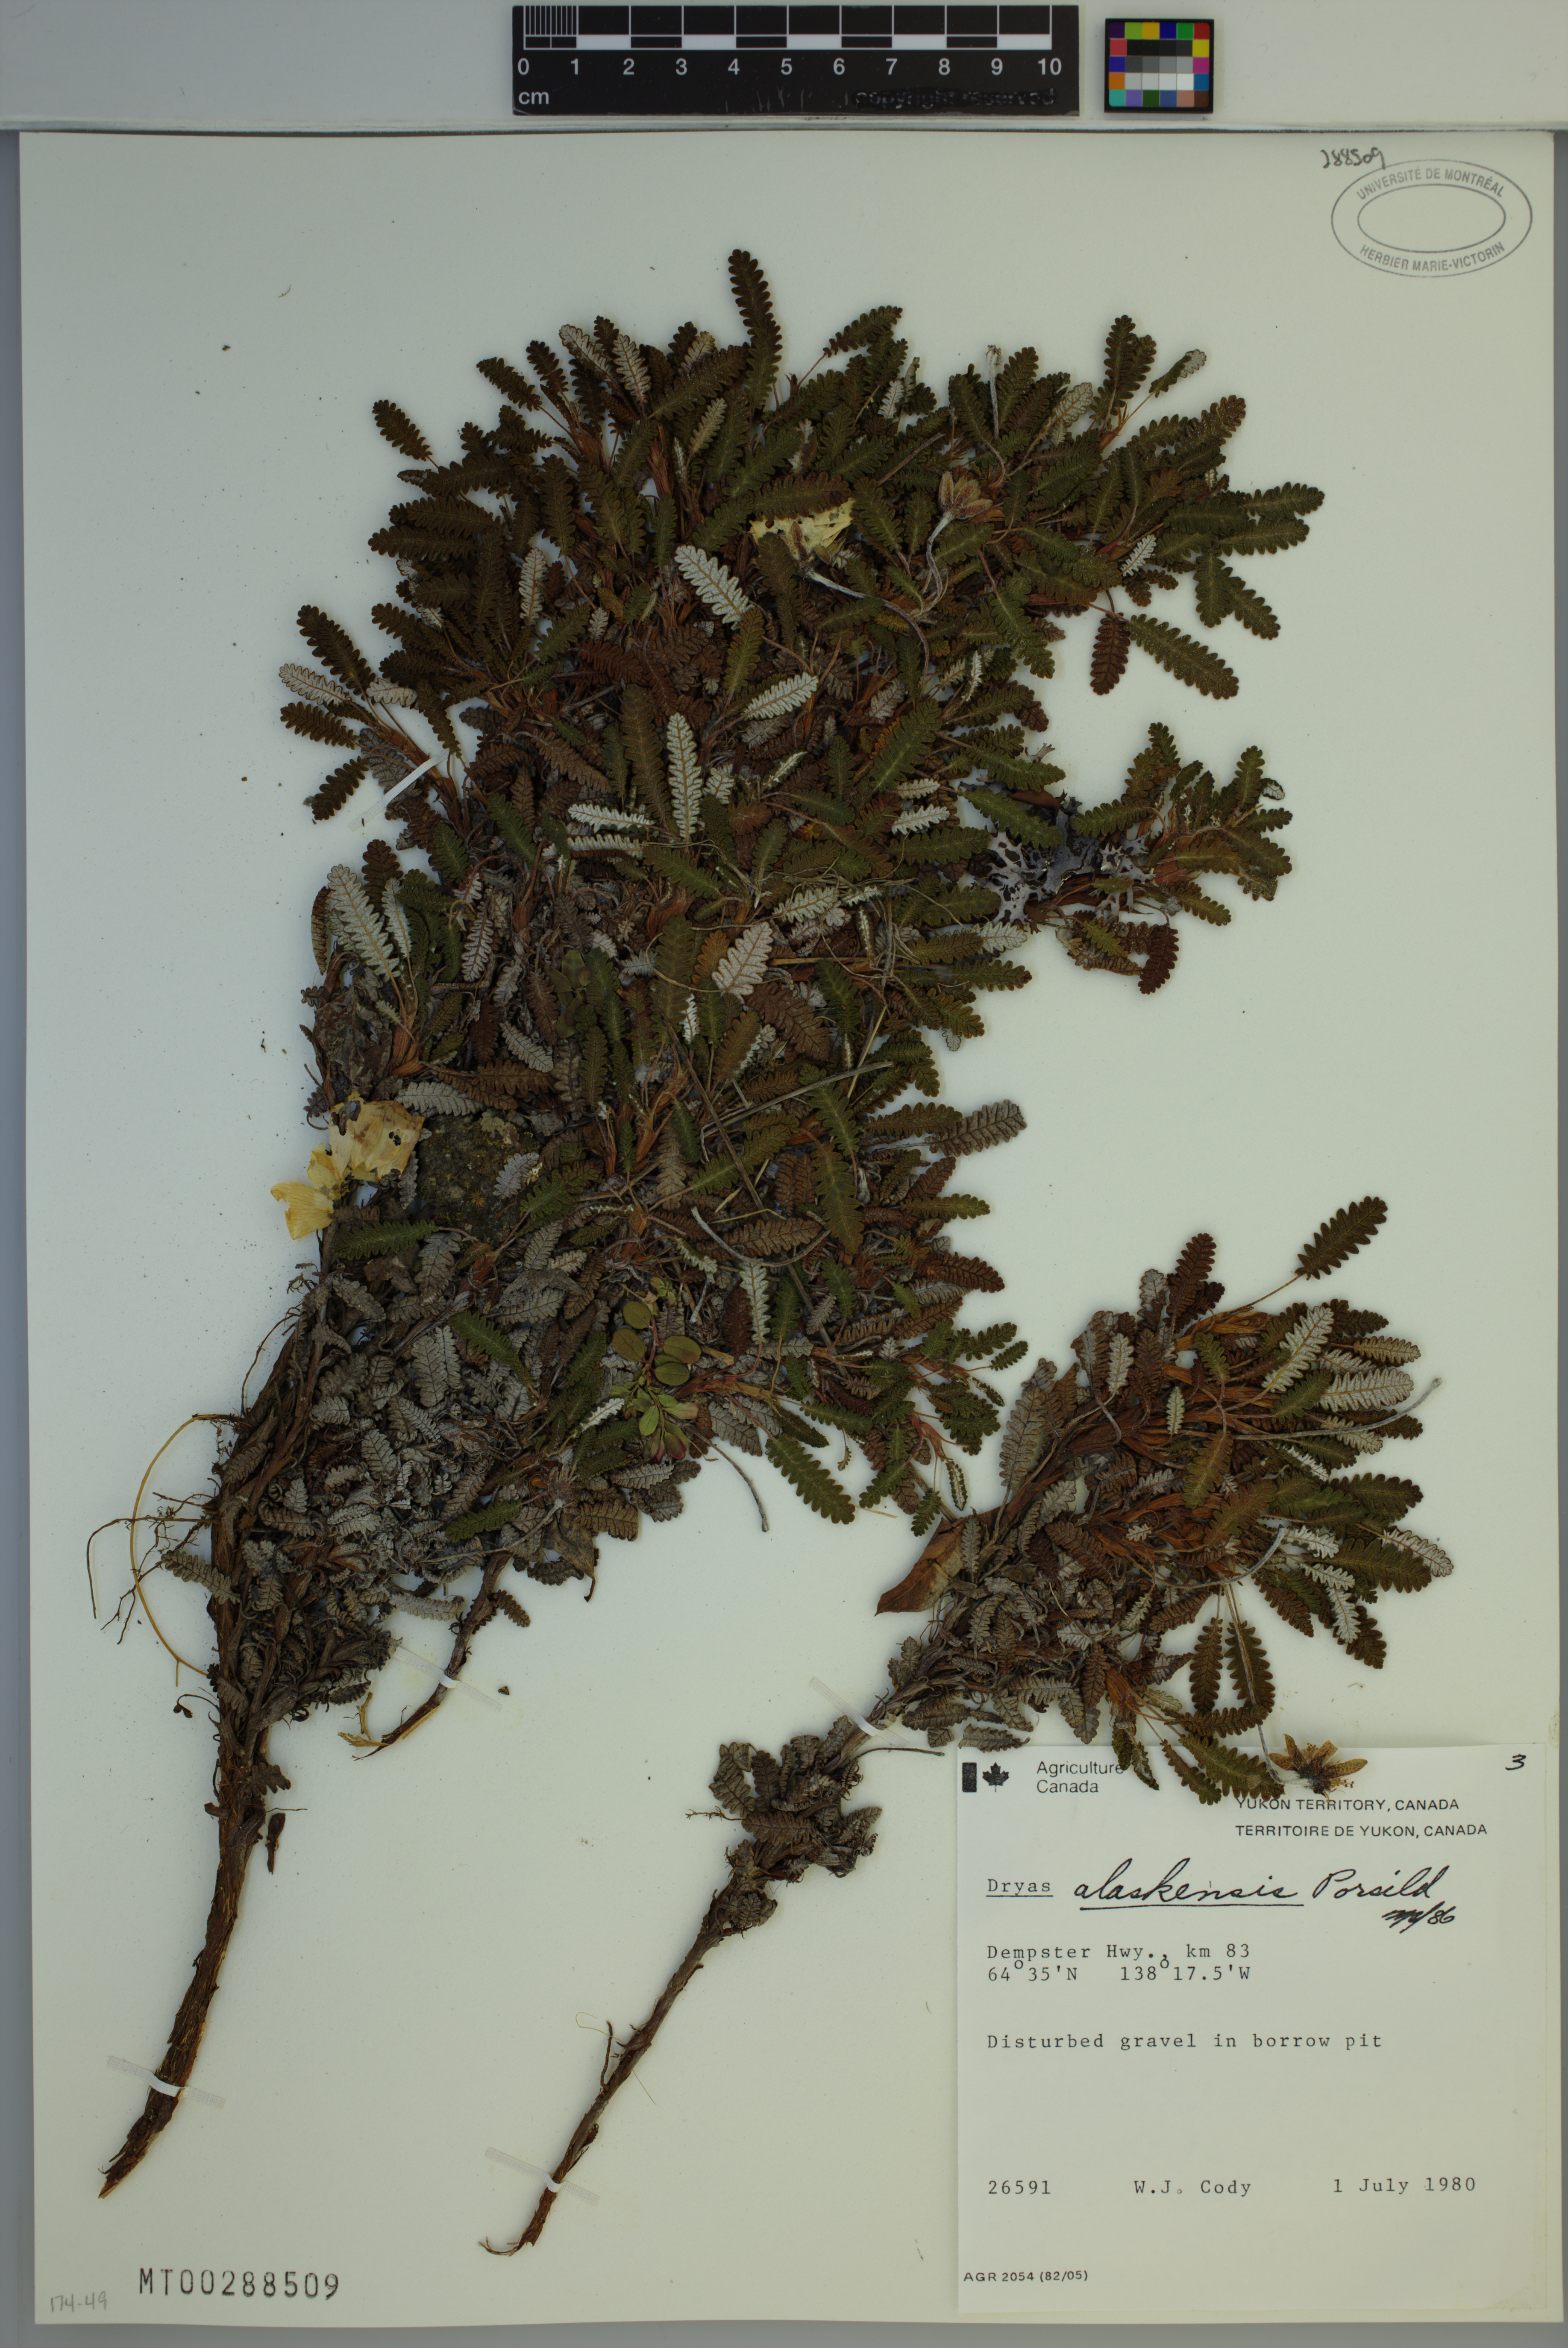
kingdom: Plantae
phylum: Tracheophyta
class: Magnoliopsida
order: Rosales
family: Rosaceae
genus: Dryas
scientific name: Dryas octopetala
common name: Eight-petal mountain-avens
